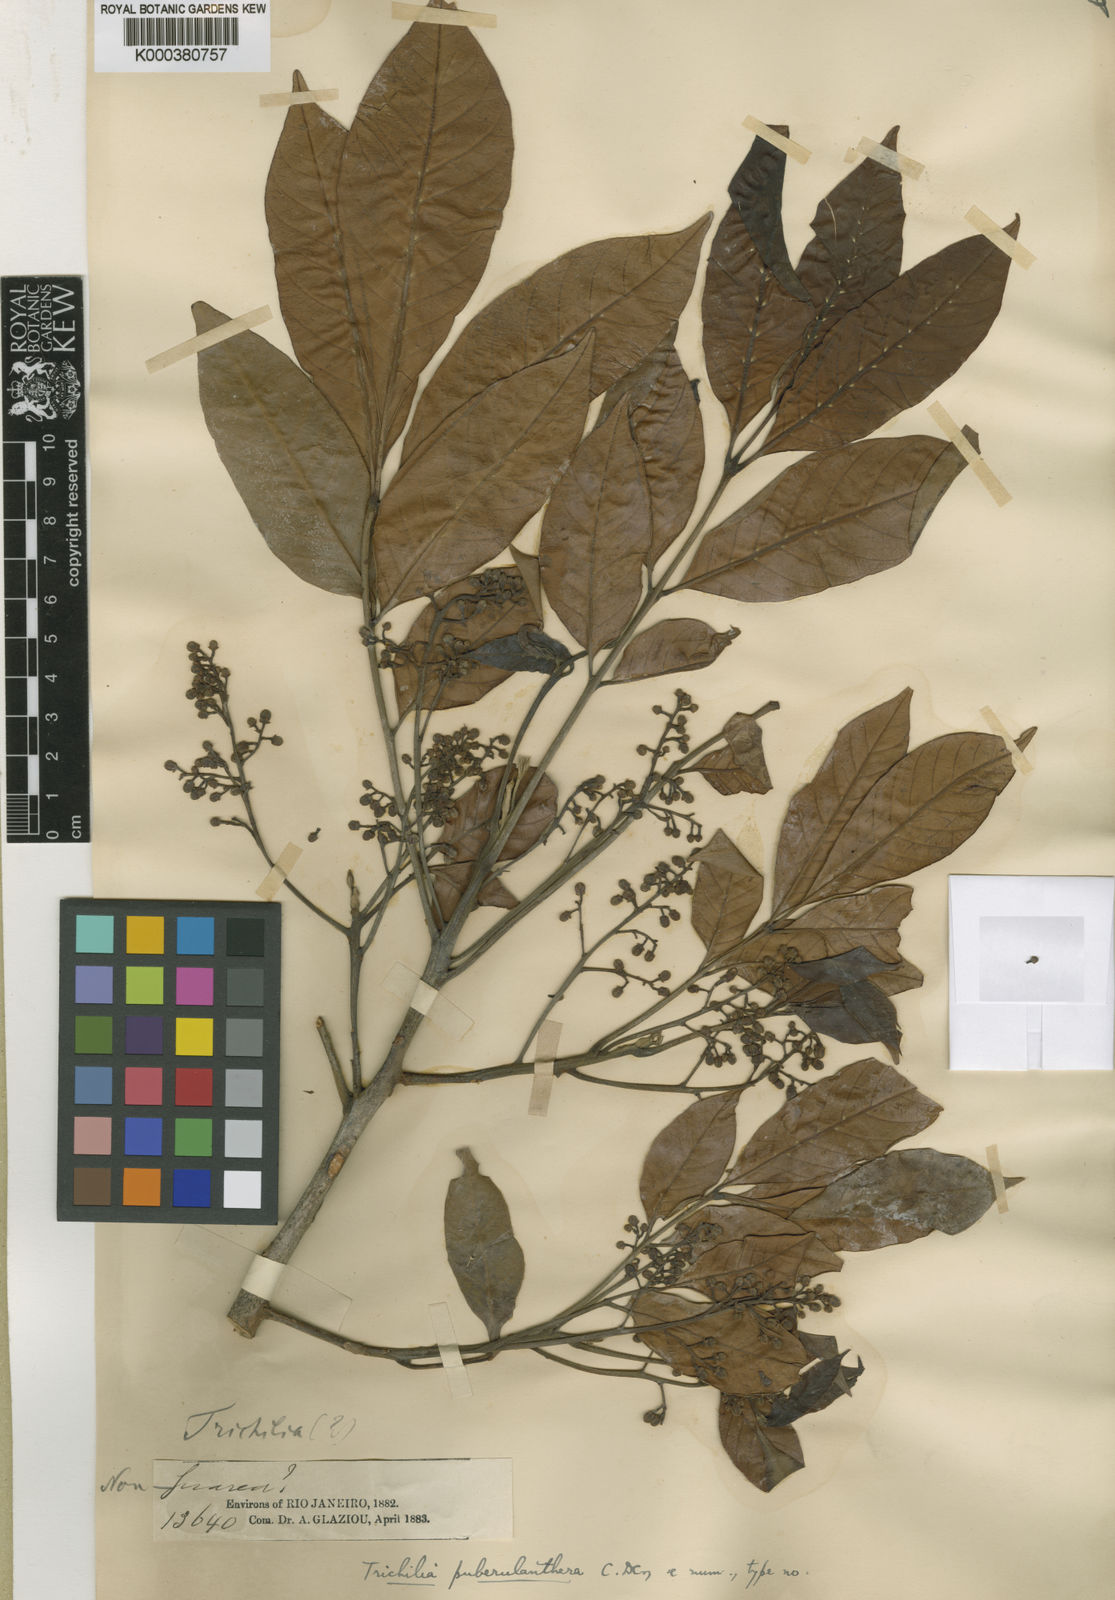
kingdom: Plantae
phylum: Tracheophyta
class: Magnoliopsida
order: Sapindales
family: Meliaceae
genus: Trichilia
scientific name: Trichilia pallens
